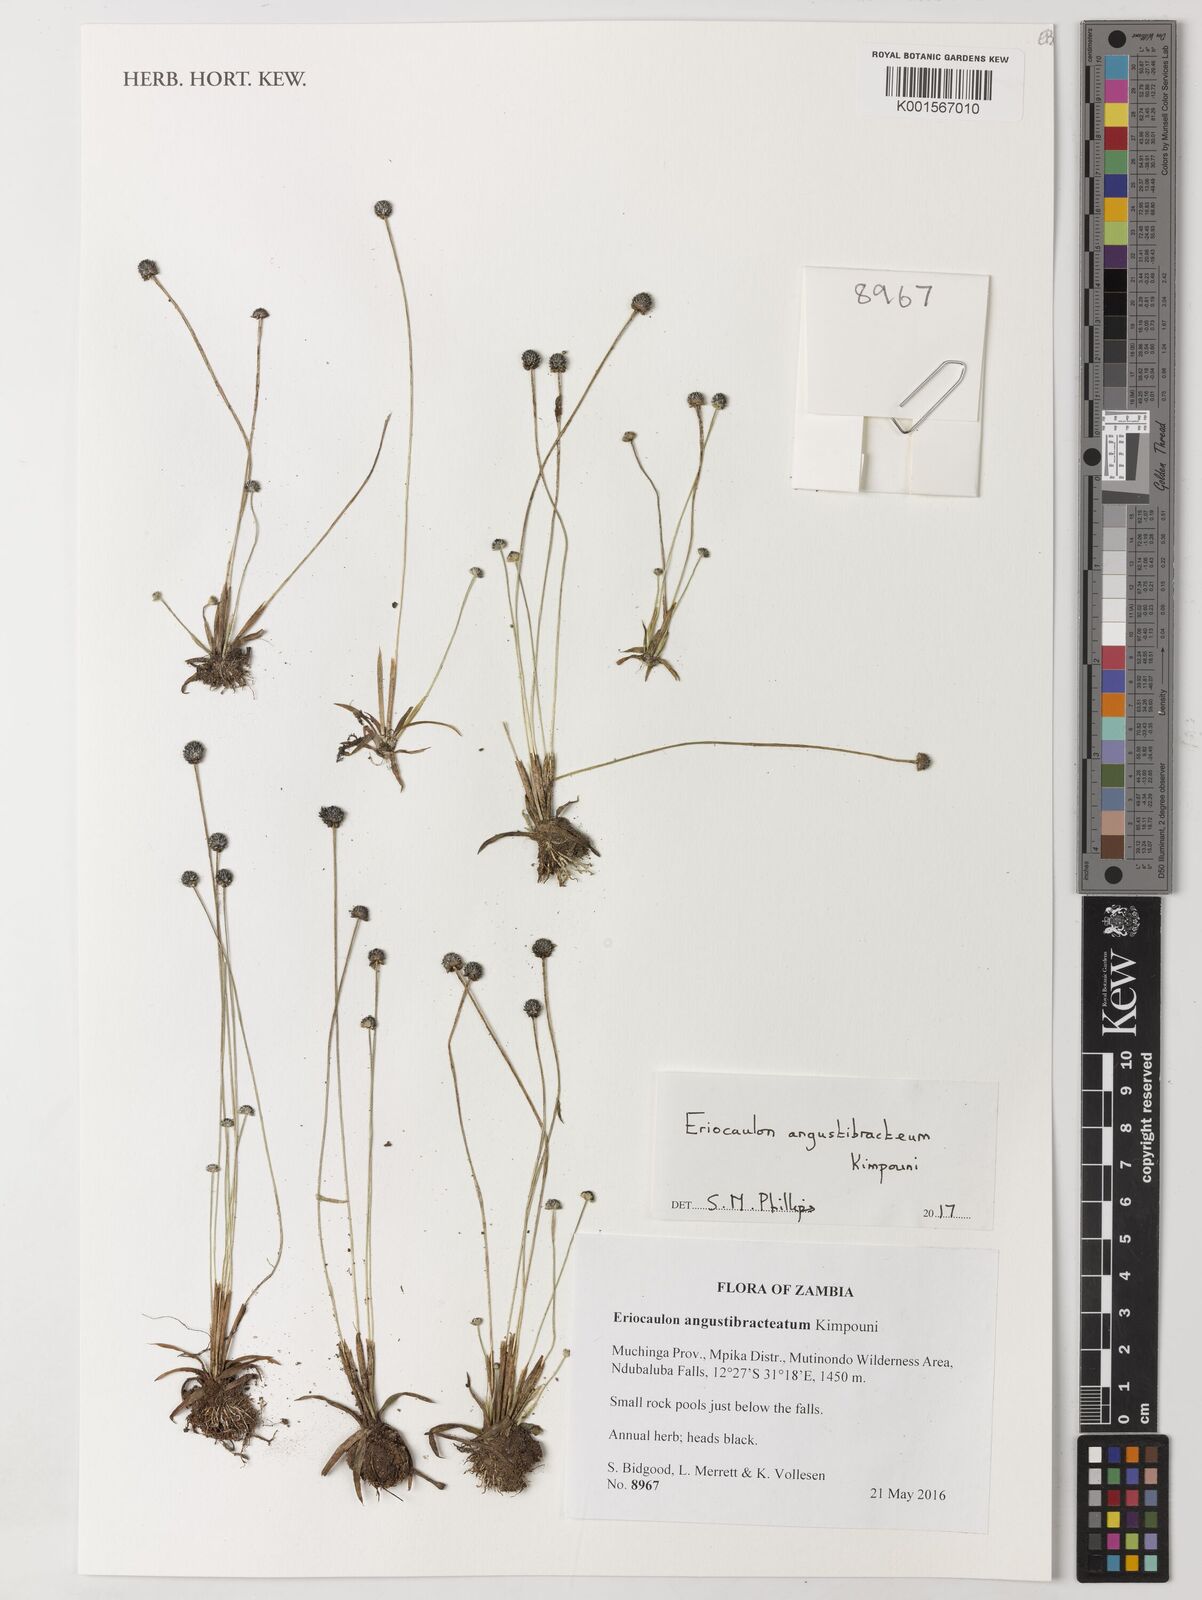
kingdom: Plantae
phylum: Tracheophyta
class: Liliopsida
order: Poales
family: Eriocaulaceae
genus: Eriocaulon
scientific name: Eriocaulon angustibracteum
